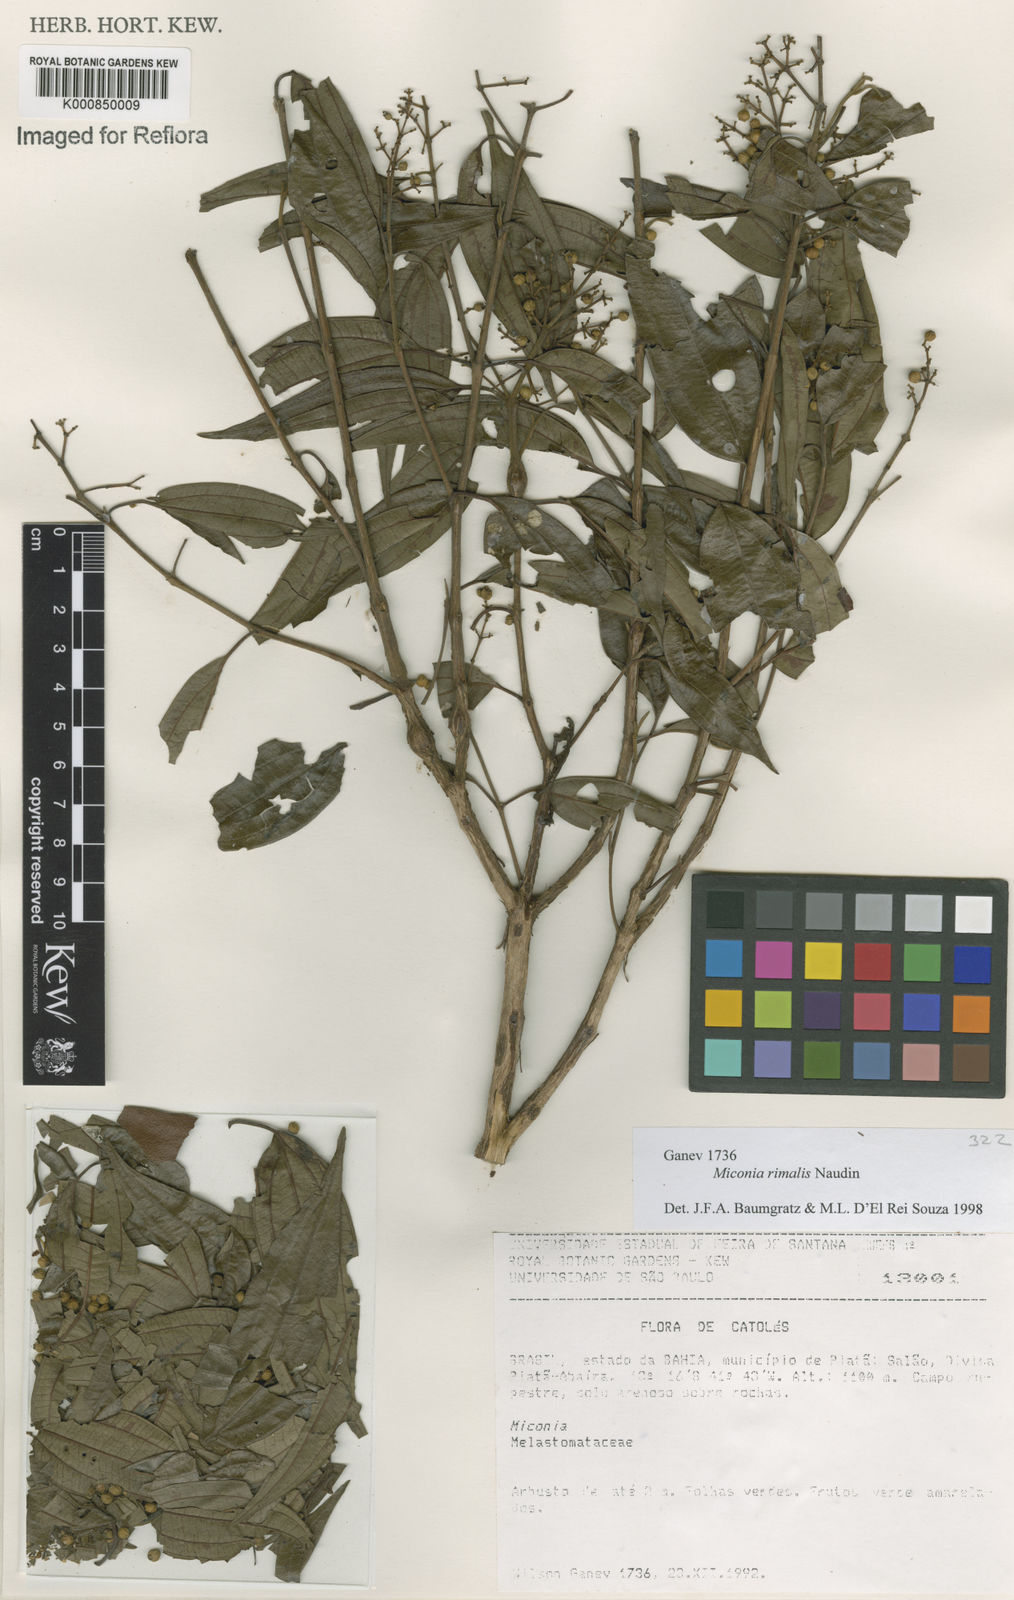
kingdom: Plantae
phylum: Tracheophyta
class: Magnoliopsida
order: Myrtales
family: Melastomataceae
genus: Miconia
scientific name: Miconia
